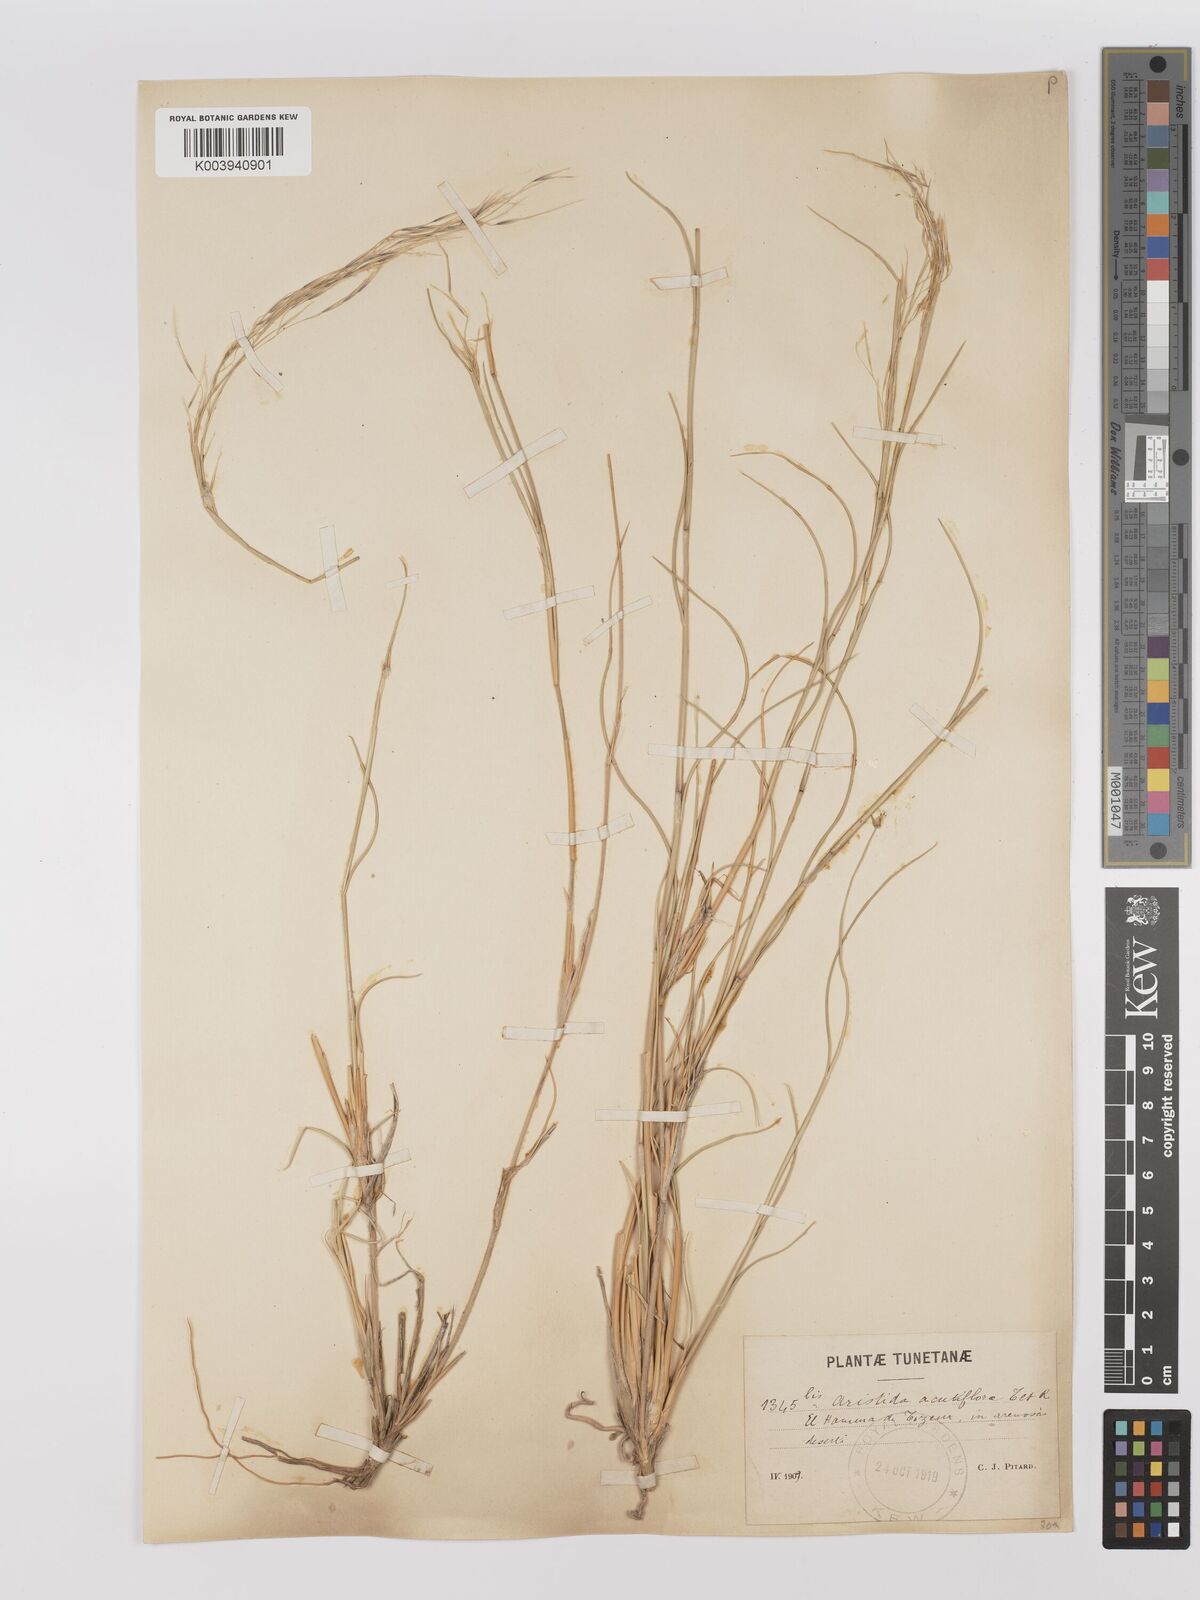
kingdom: Plantae
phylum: Tracheophyta
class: Liliopsida
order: Poales
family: Poaceae
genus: Stipagrostis
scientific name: Stipagrostis acutiflora
